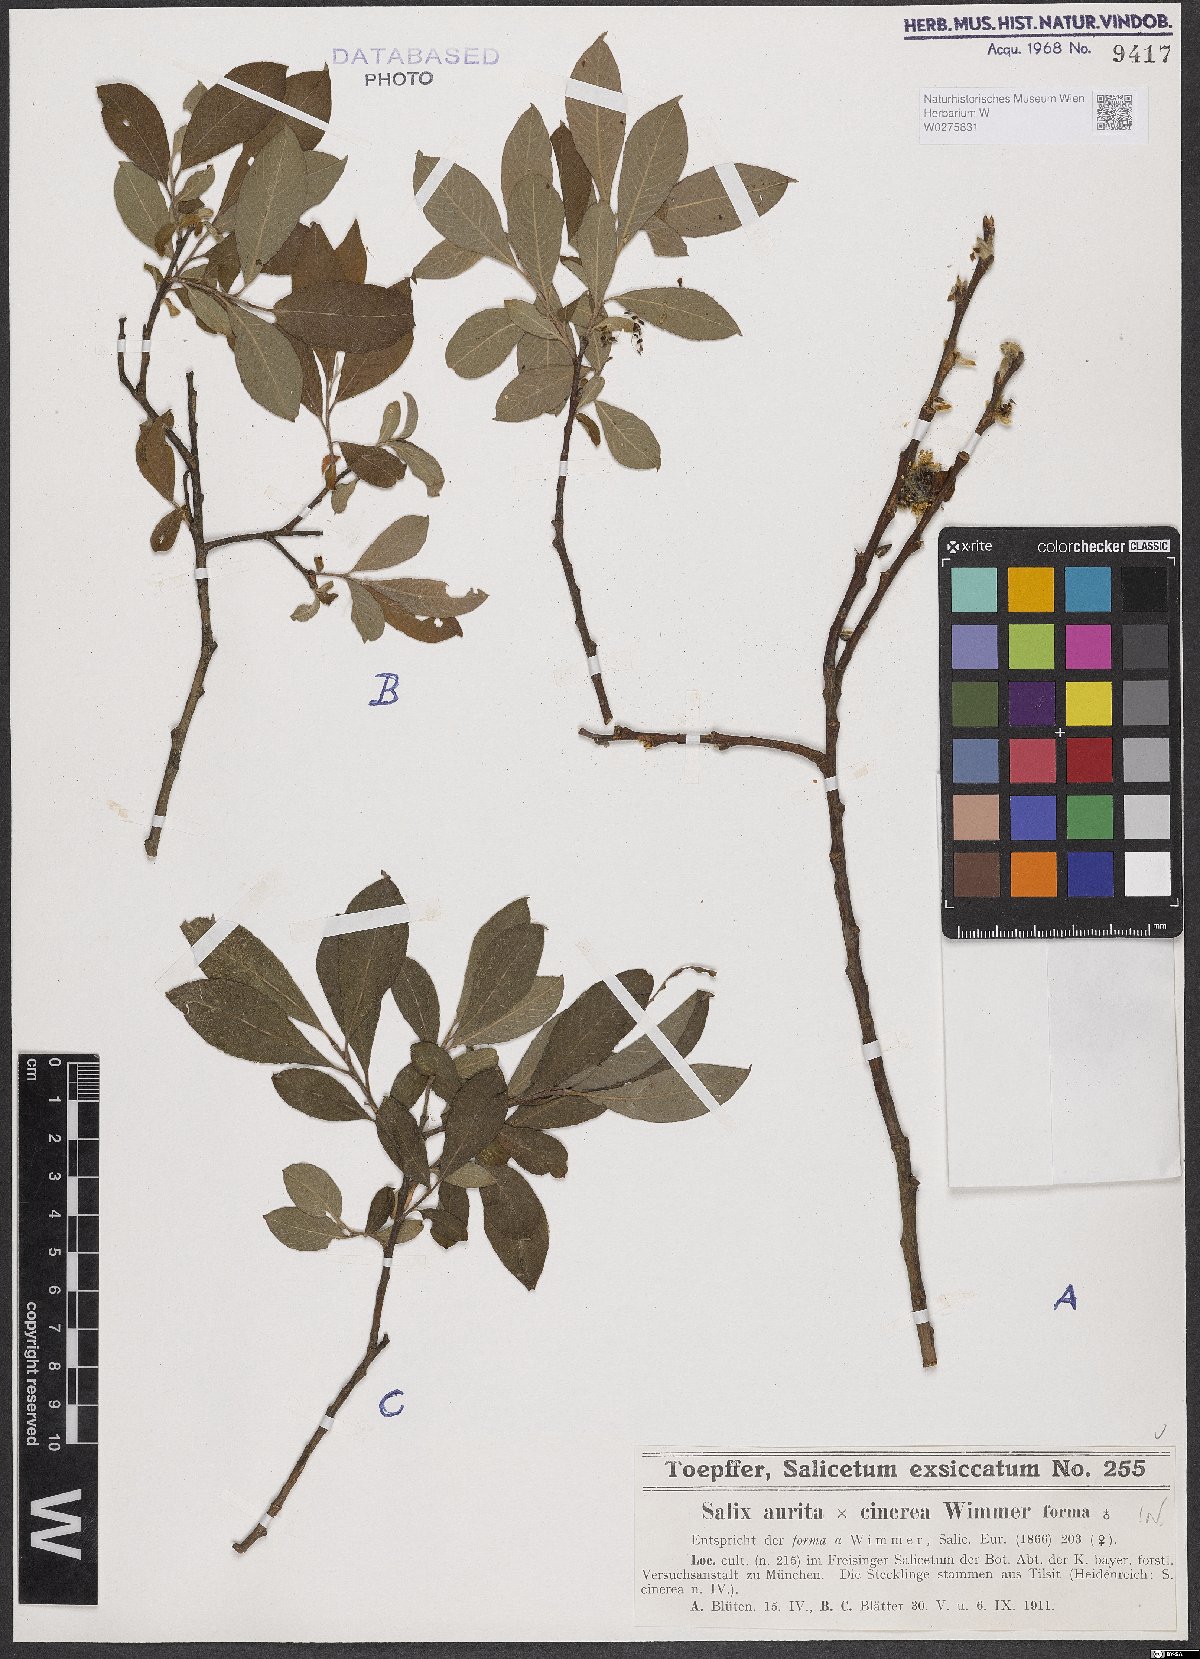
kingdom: Plantae
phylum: Tracheophyta
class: Magnoliopsida
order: Malpighiales
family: Salicaceae
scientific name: Salicaceae
